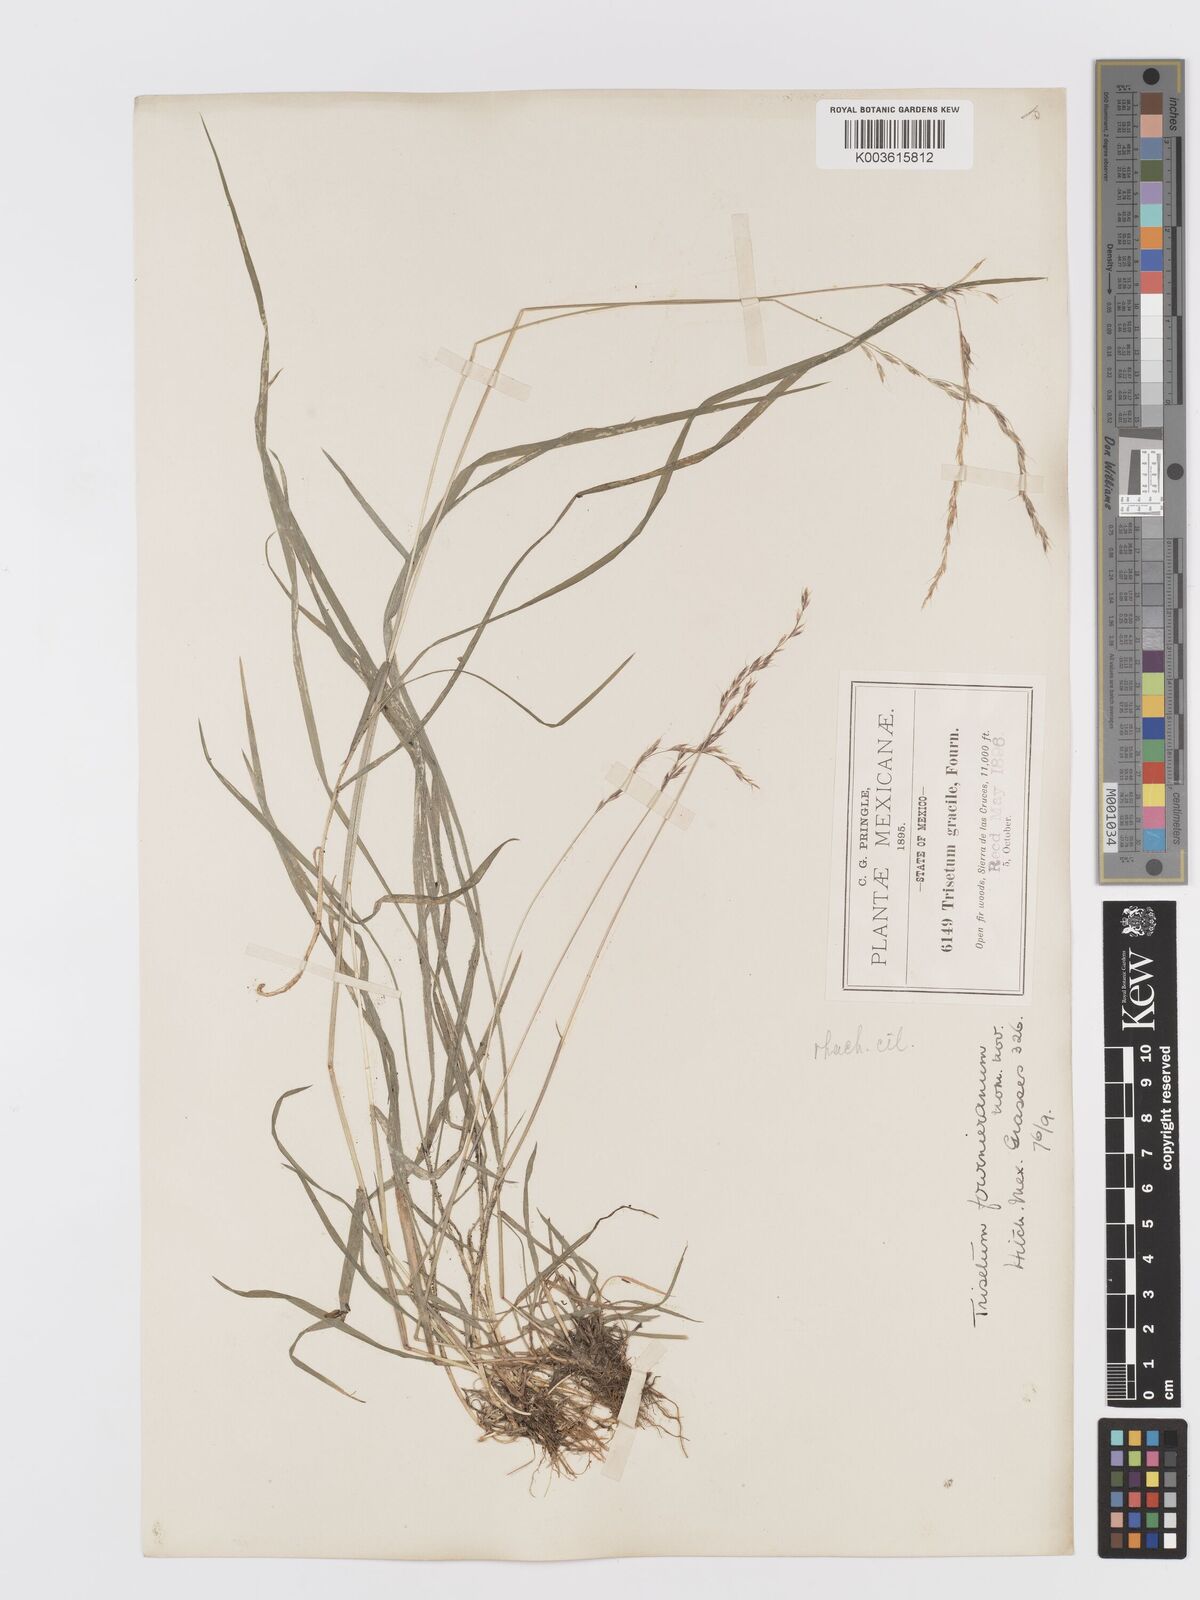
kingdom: Plantae
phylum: Tracheophyta
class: Liliopsida
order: Poales
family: Poaceae
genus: Peyritschia
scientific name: Peyritschia irazuensis
